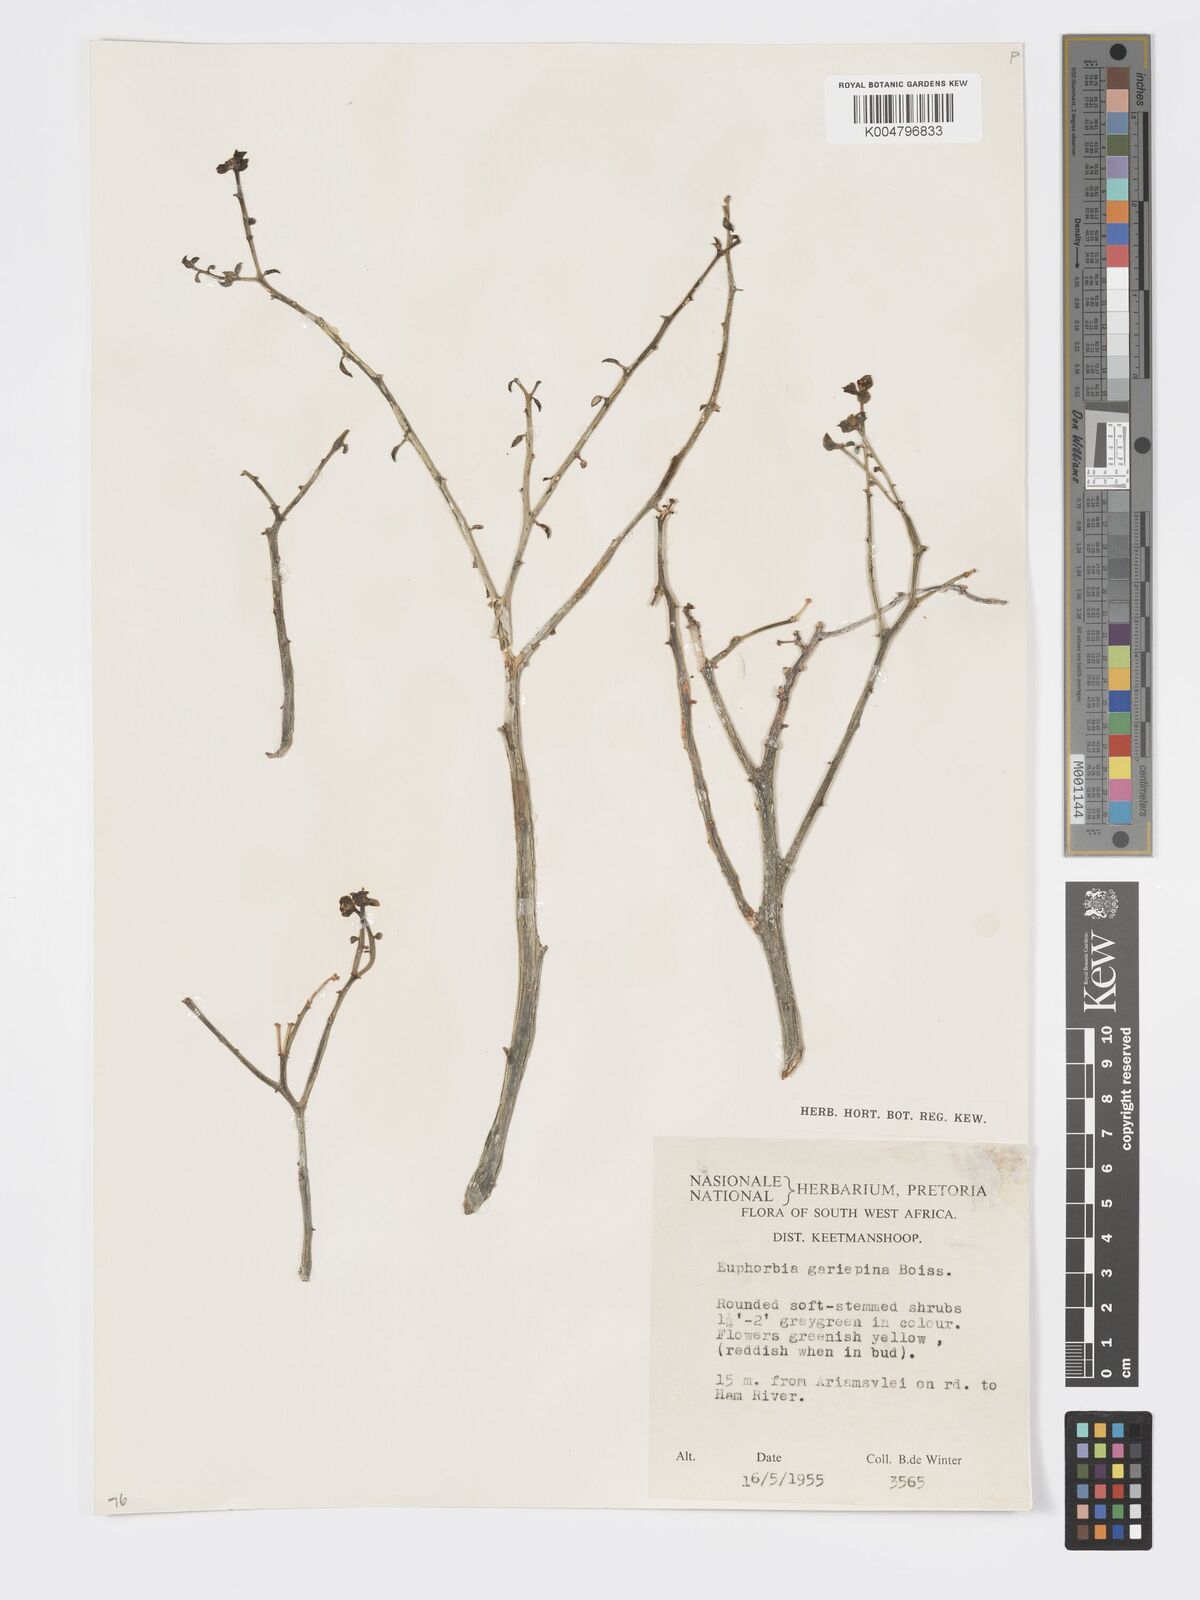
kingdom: Plantae
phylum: Tracheophyta
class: Magnoliopsida
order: Malpighiales
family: Euphorbiaceae
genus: Euphorbia
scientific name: Euphorbia gariepina
